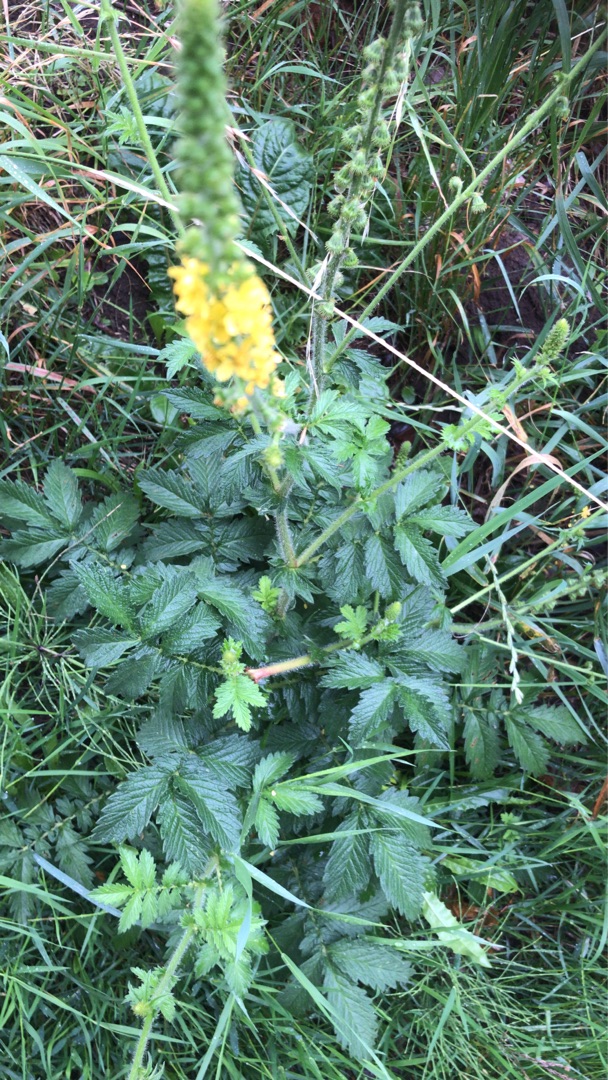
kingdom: Plantae
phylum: Tracheophyta
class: Magnoliopsida
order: Rosales
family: Rosaceae
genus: Agrimonia
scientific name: Agrimonia eupatoria
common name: Almindelig agermåne
